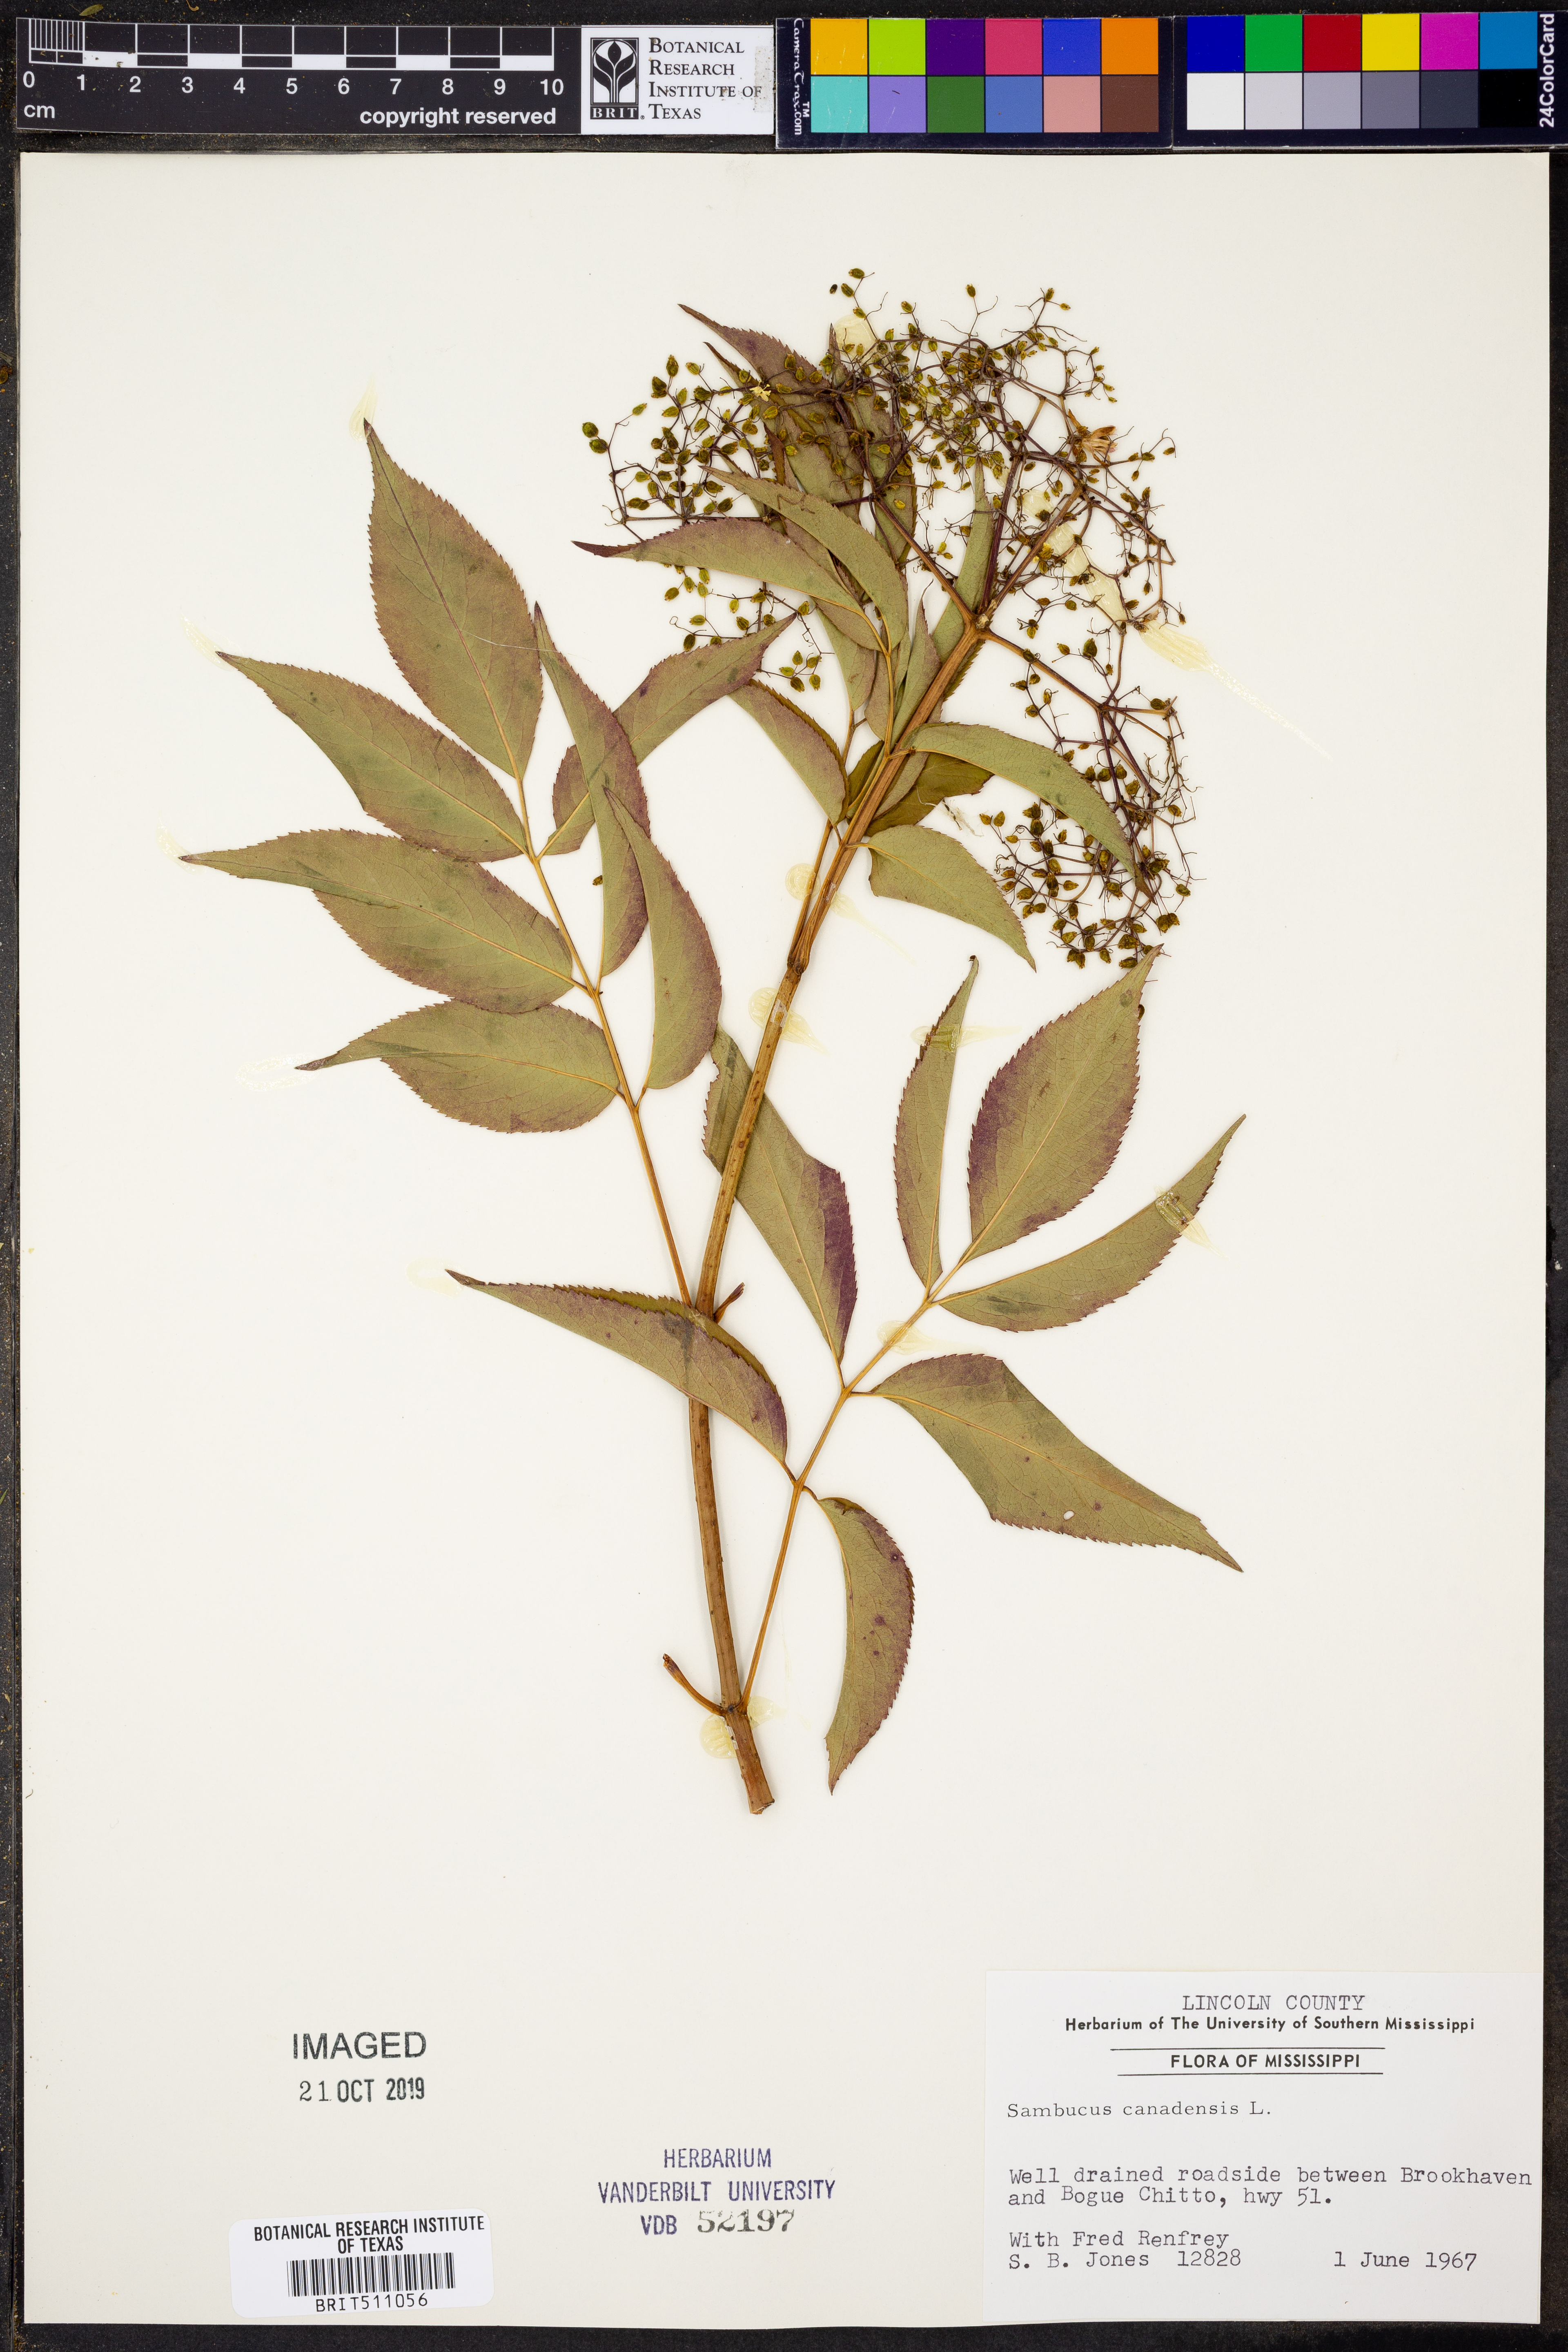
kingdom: Plantae
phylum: Tracheophyta
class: Magnoliopsida
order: Dipsacales
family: Viburnaceae
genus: Sambucus
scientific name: Sambucus canadensis
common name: American elder
